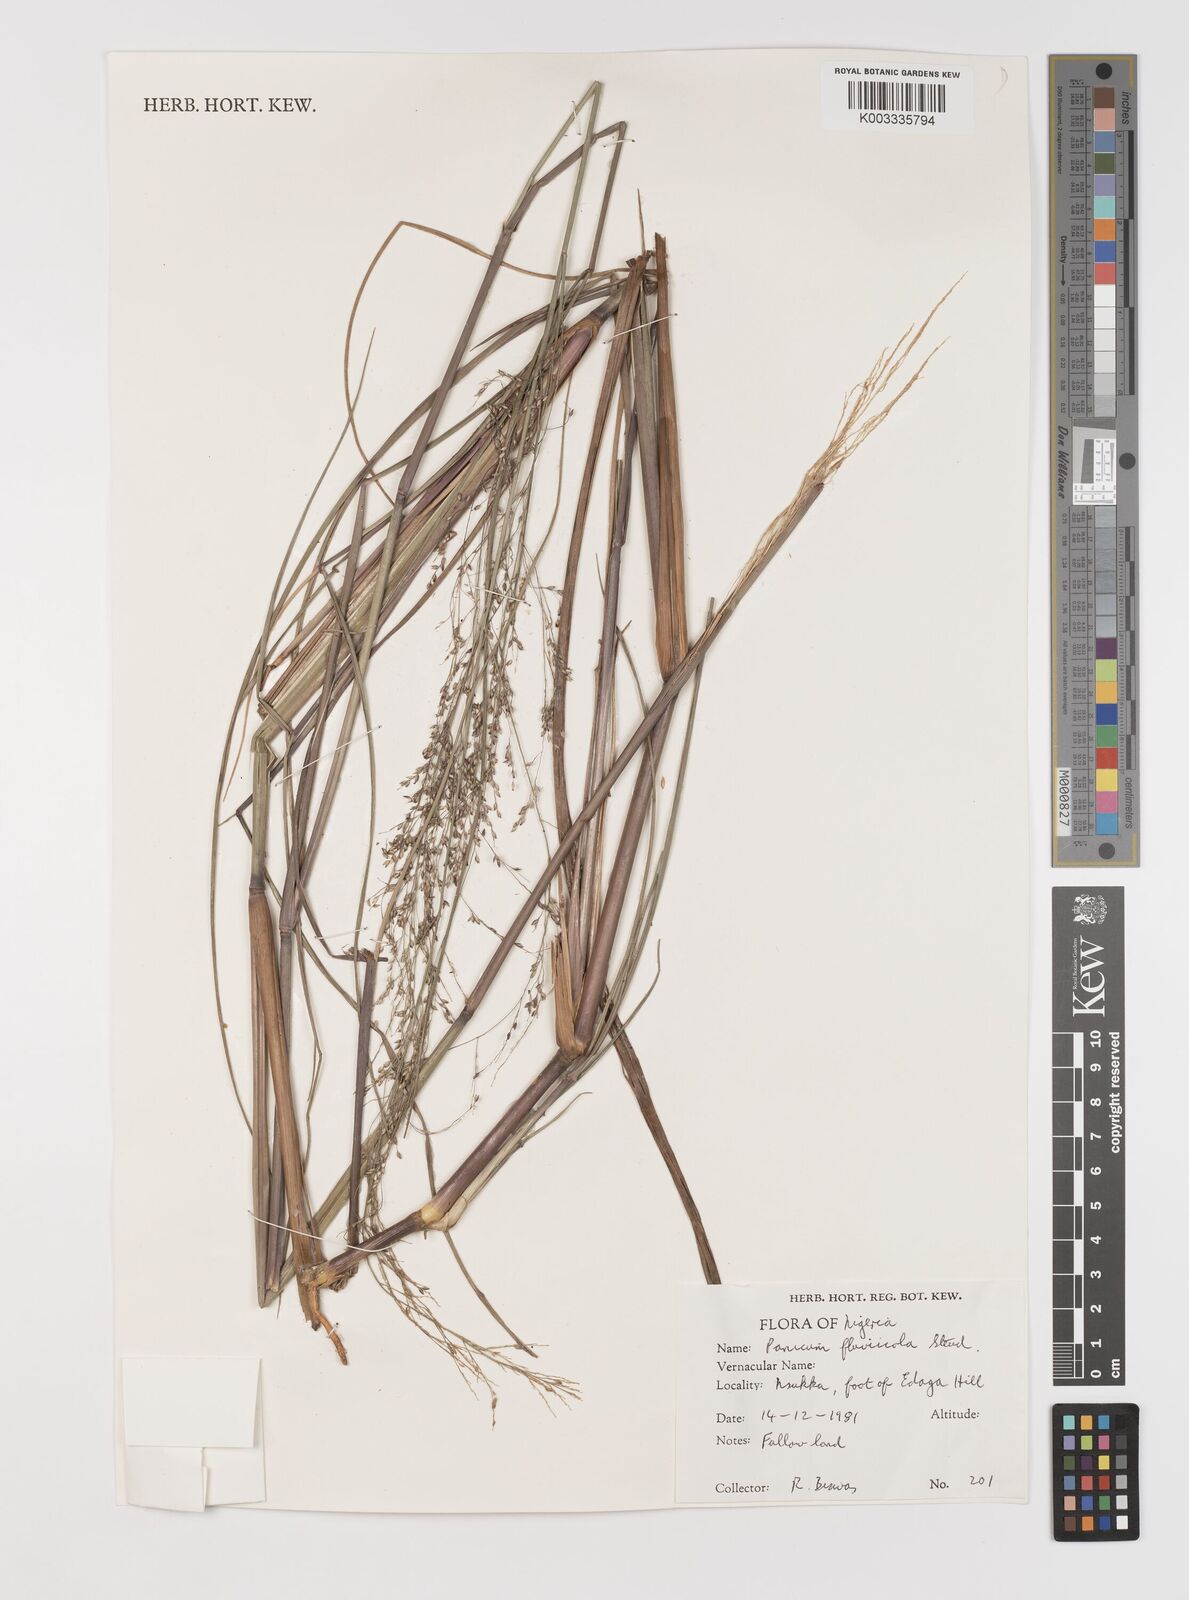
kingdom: Plantae
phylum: Tracheophyta
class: Liliopsida
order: Poales
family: Poaceae
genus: Panicum
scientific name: Panicum fluviicola
